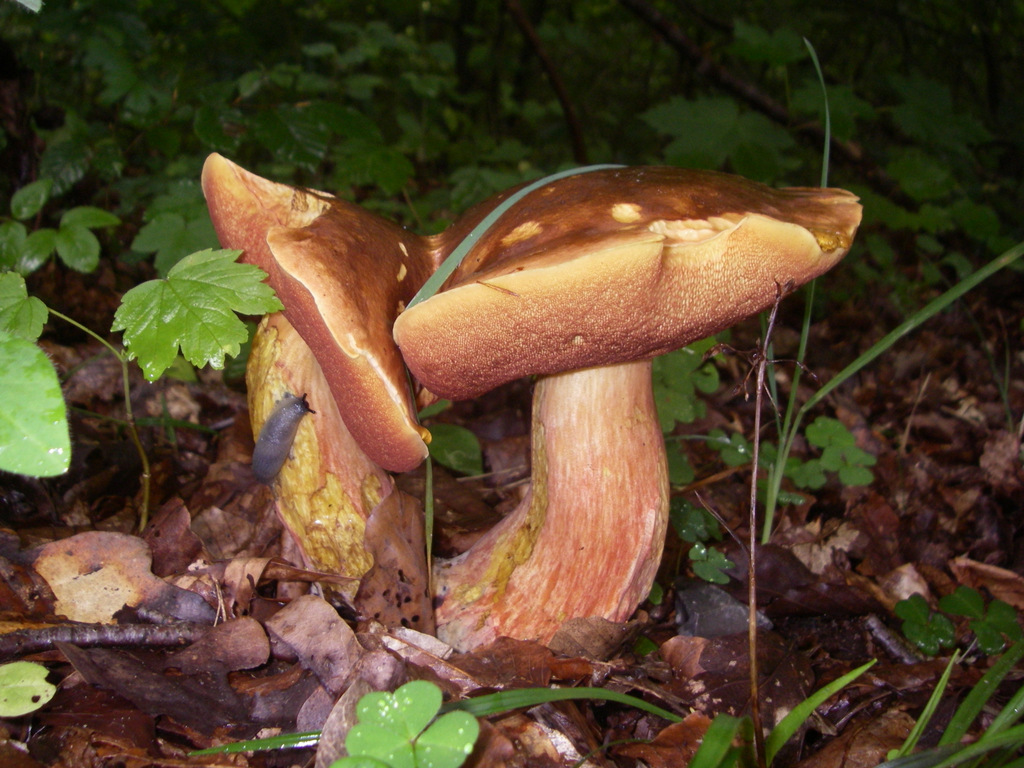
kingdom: Fungi
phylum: Basidiomycota
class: Agaricomycetes
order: Boletales
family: Boletaceae
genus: Neoboletus
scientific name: Neoboletus erythropus
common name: punktstokket indigorørhat
